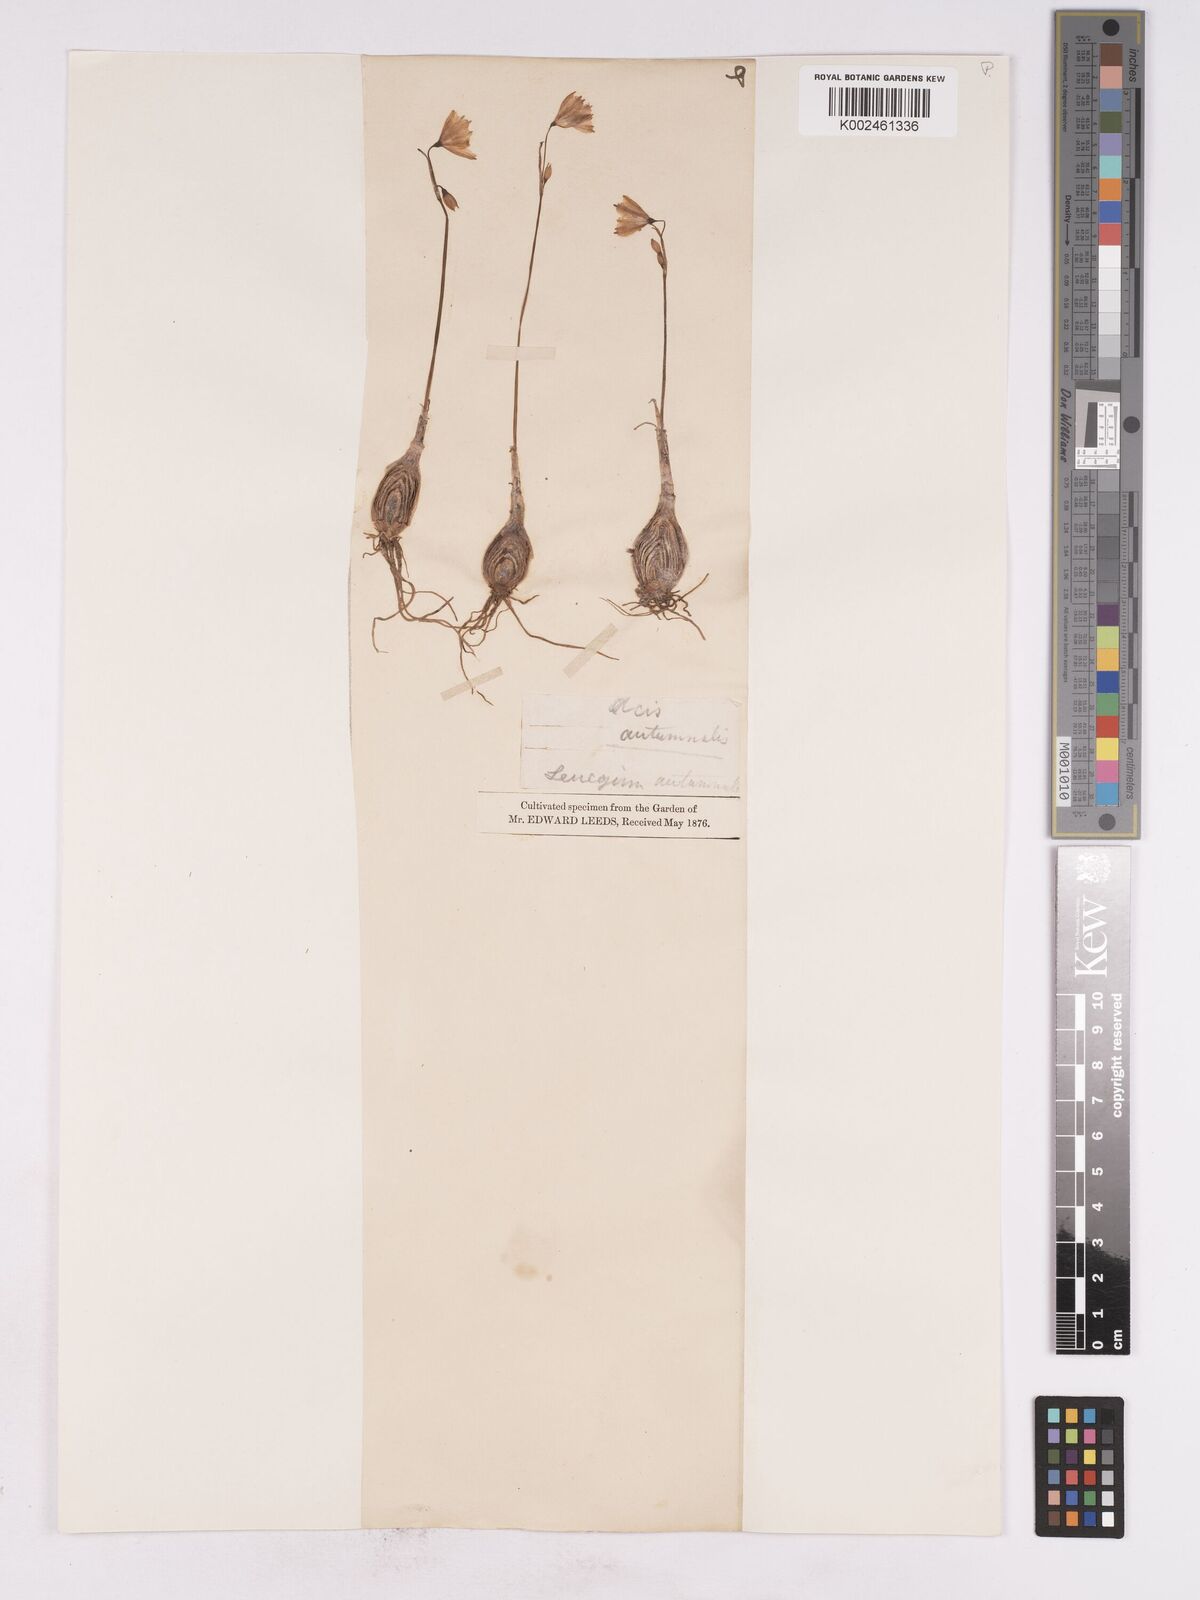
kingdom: Plantae
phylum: Tracheophyta
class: Liliopsida
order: Asparagales
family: Amaryllidaceae
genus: Acis
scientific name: Acis autumnalis
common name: Autumn snowflake
